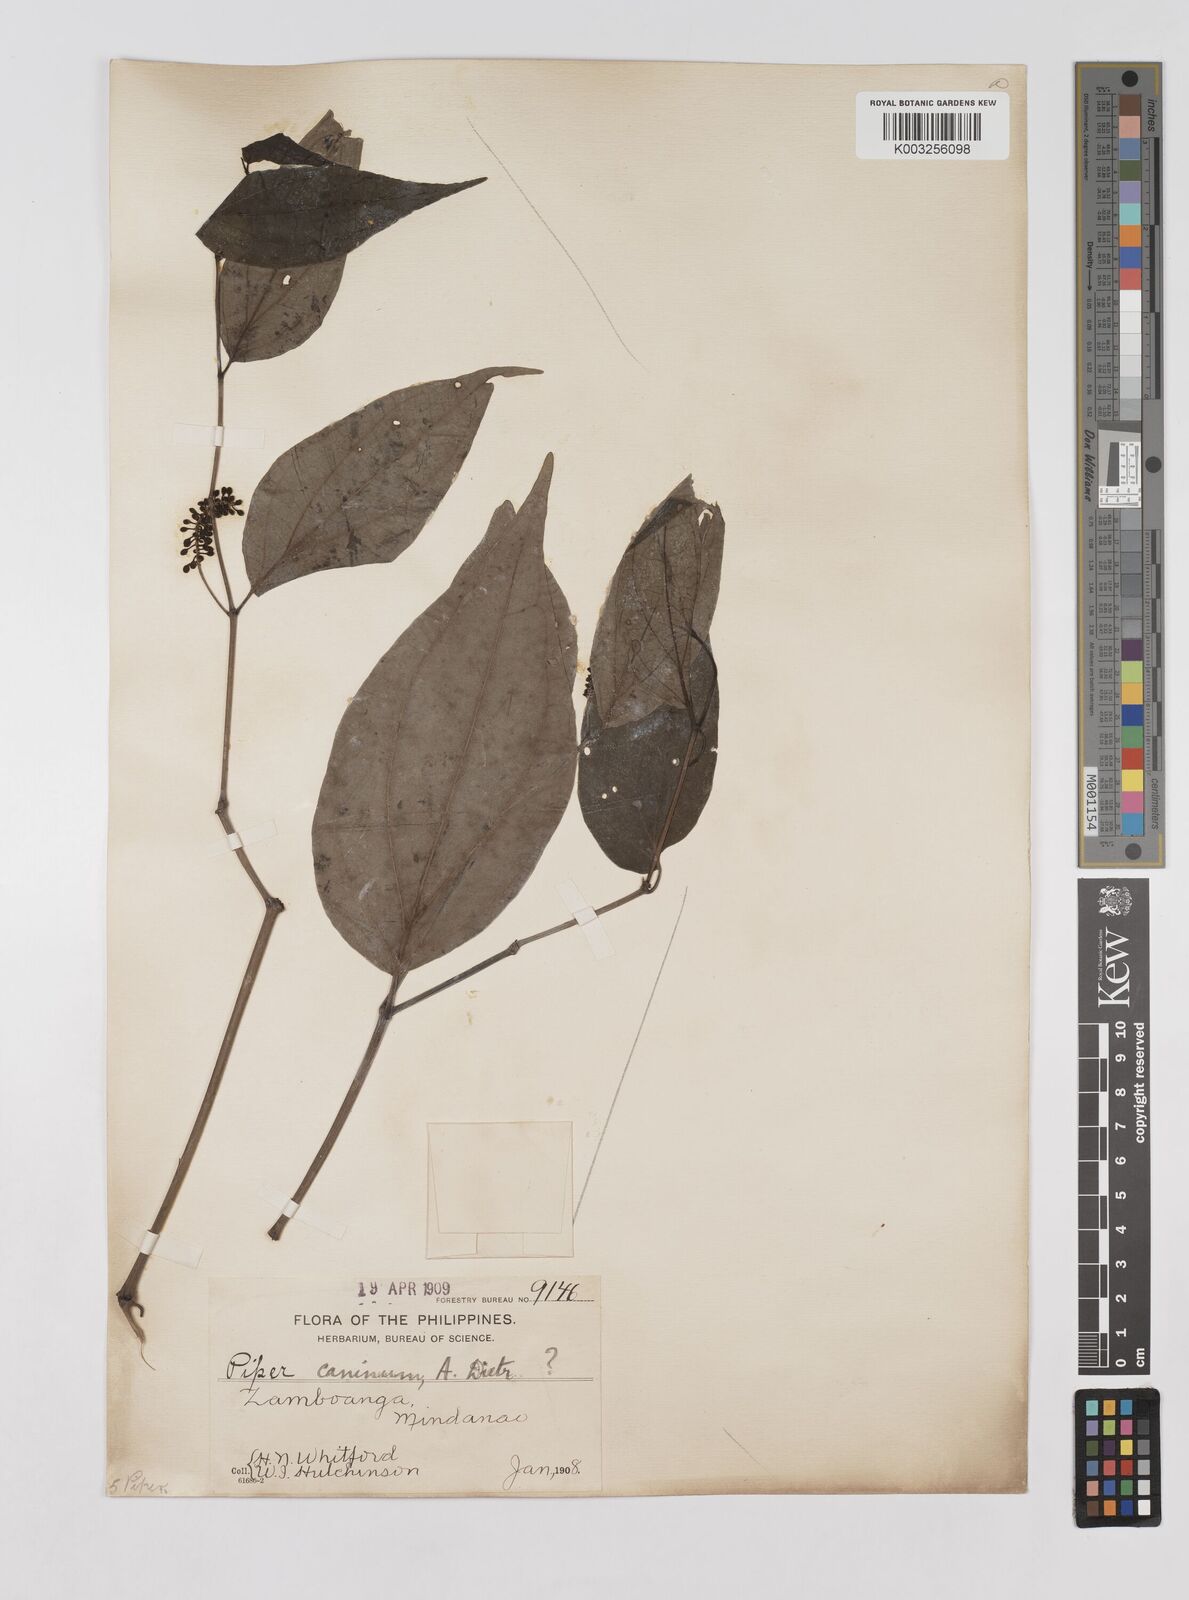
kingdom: Plantae
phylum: Tracheophyta
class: Magnoliopsida
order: Piperales
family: Piperaceae
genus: Piper
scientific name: Piper lanatum
